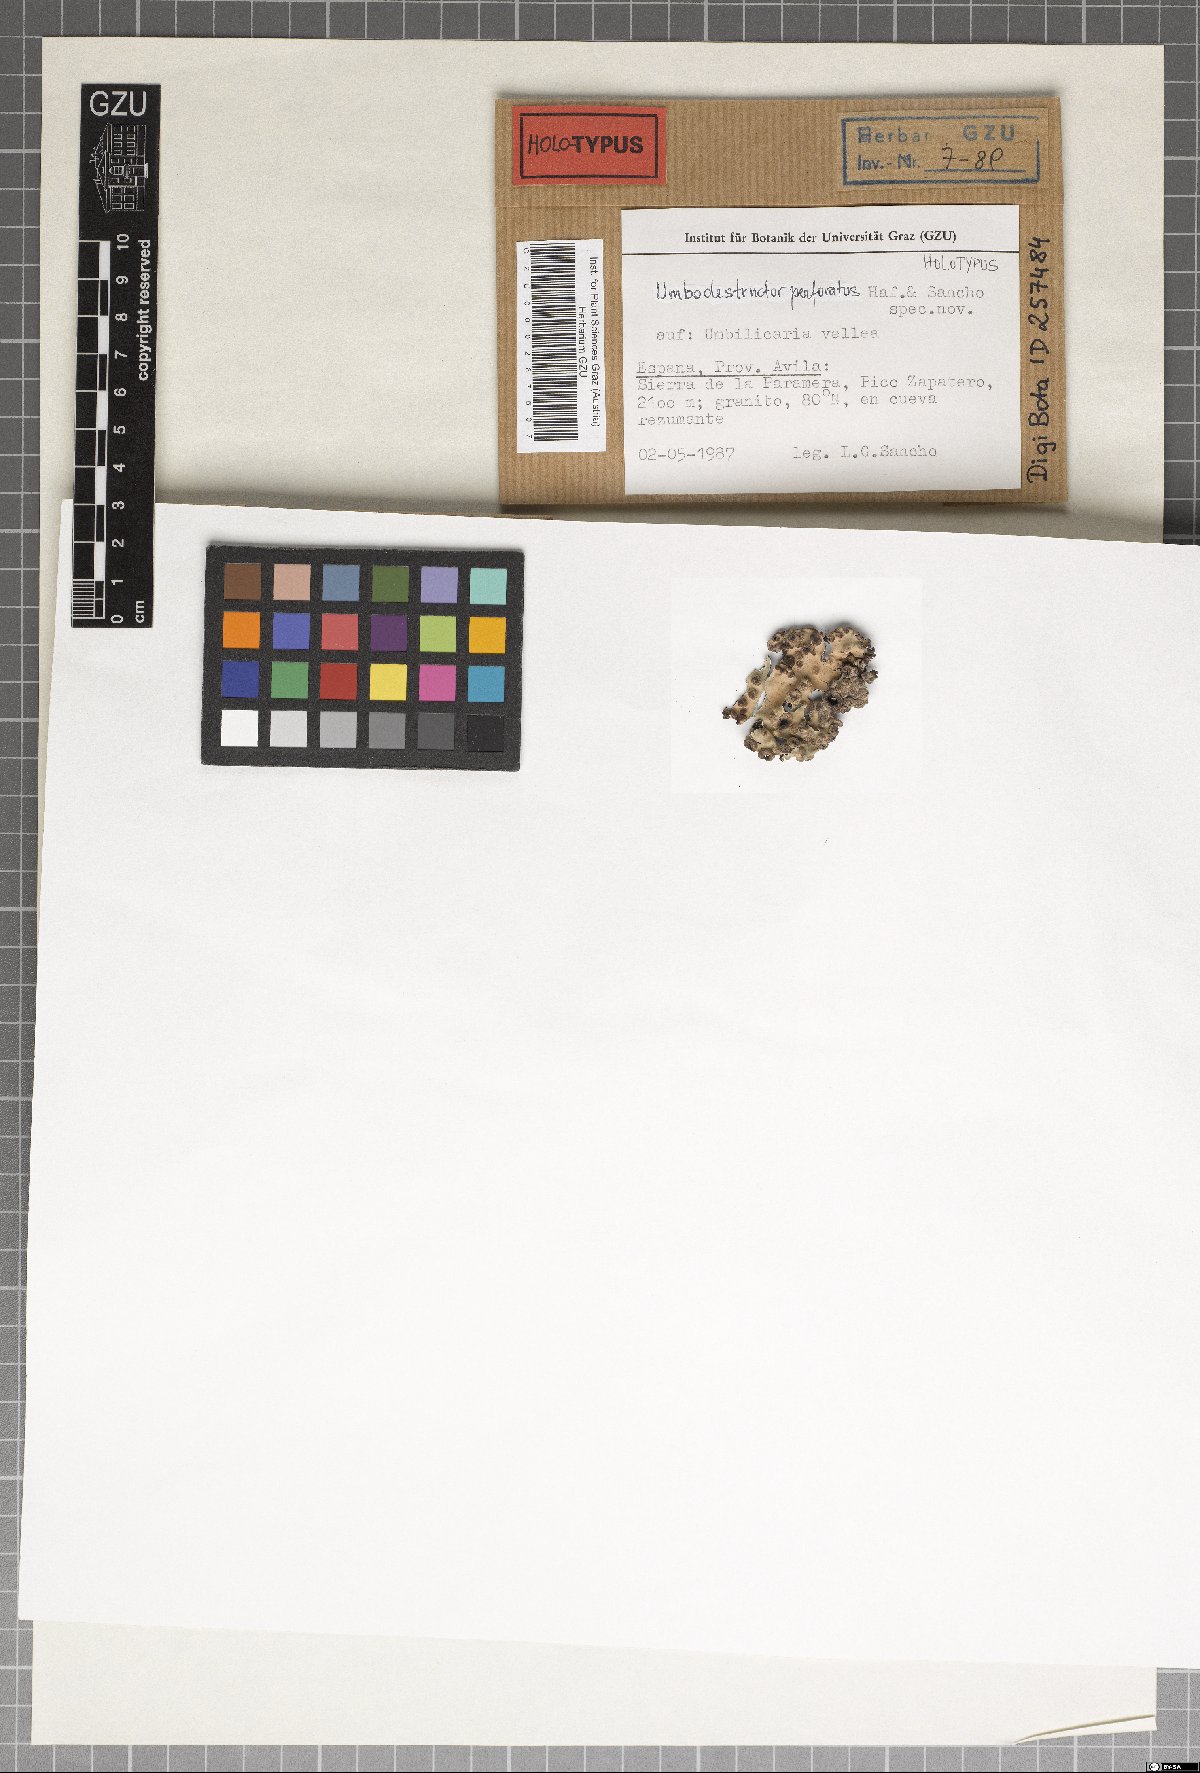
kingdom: Fungi
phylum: Ascomycota
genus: Gyrophthorus
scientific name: Gyrophthorus perforans
